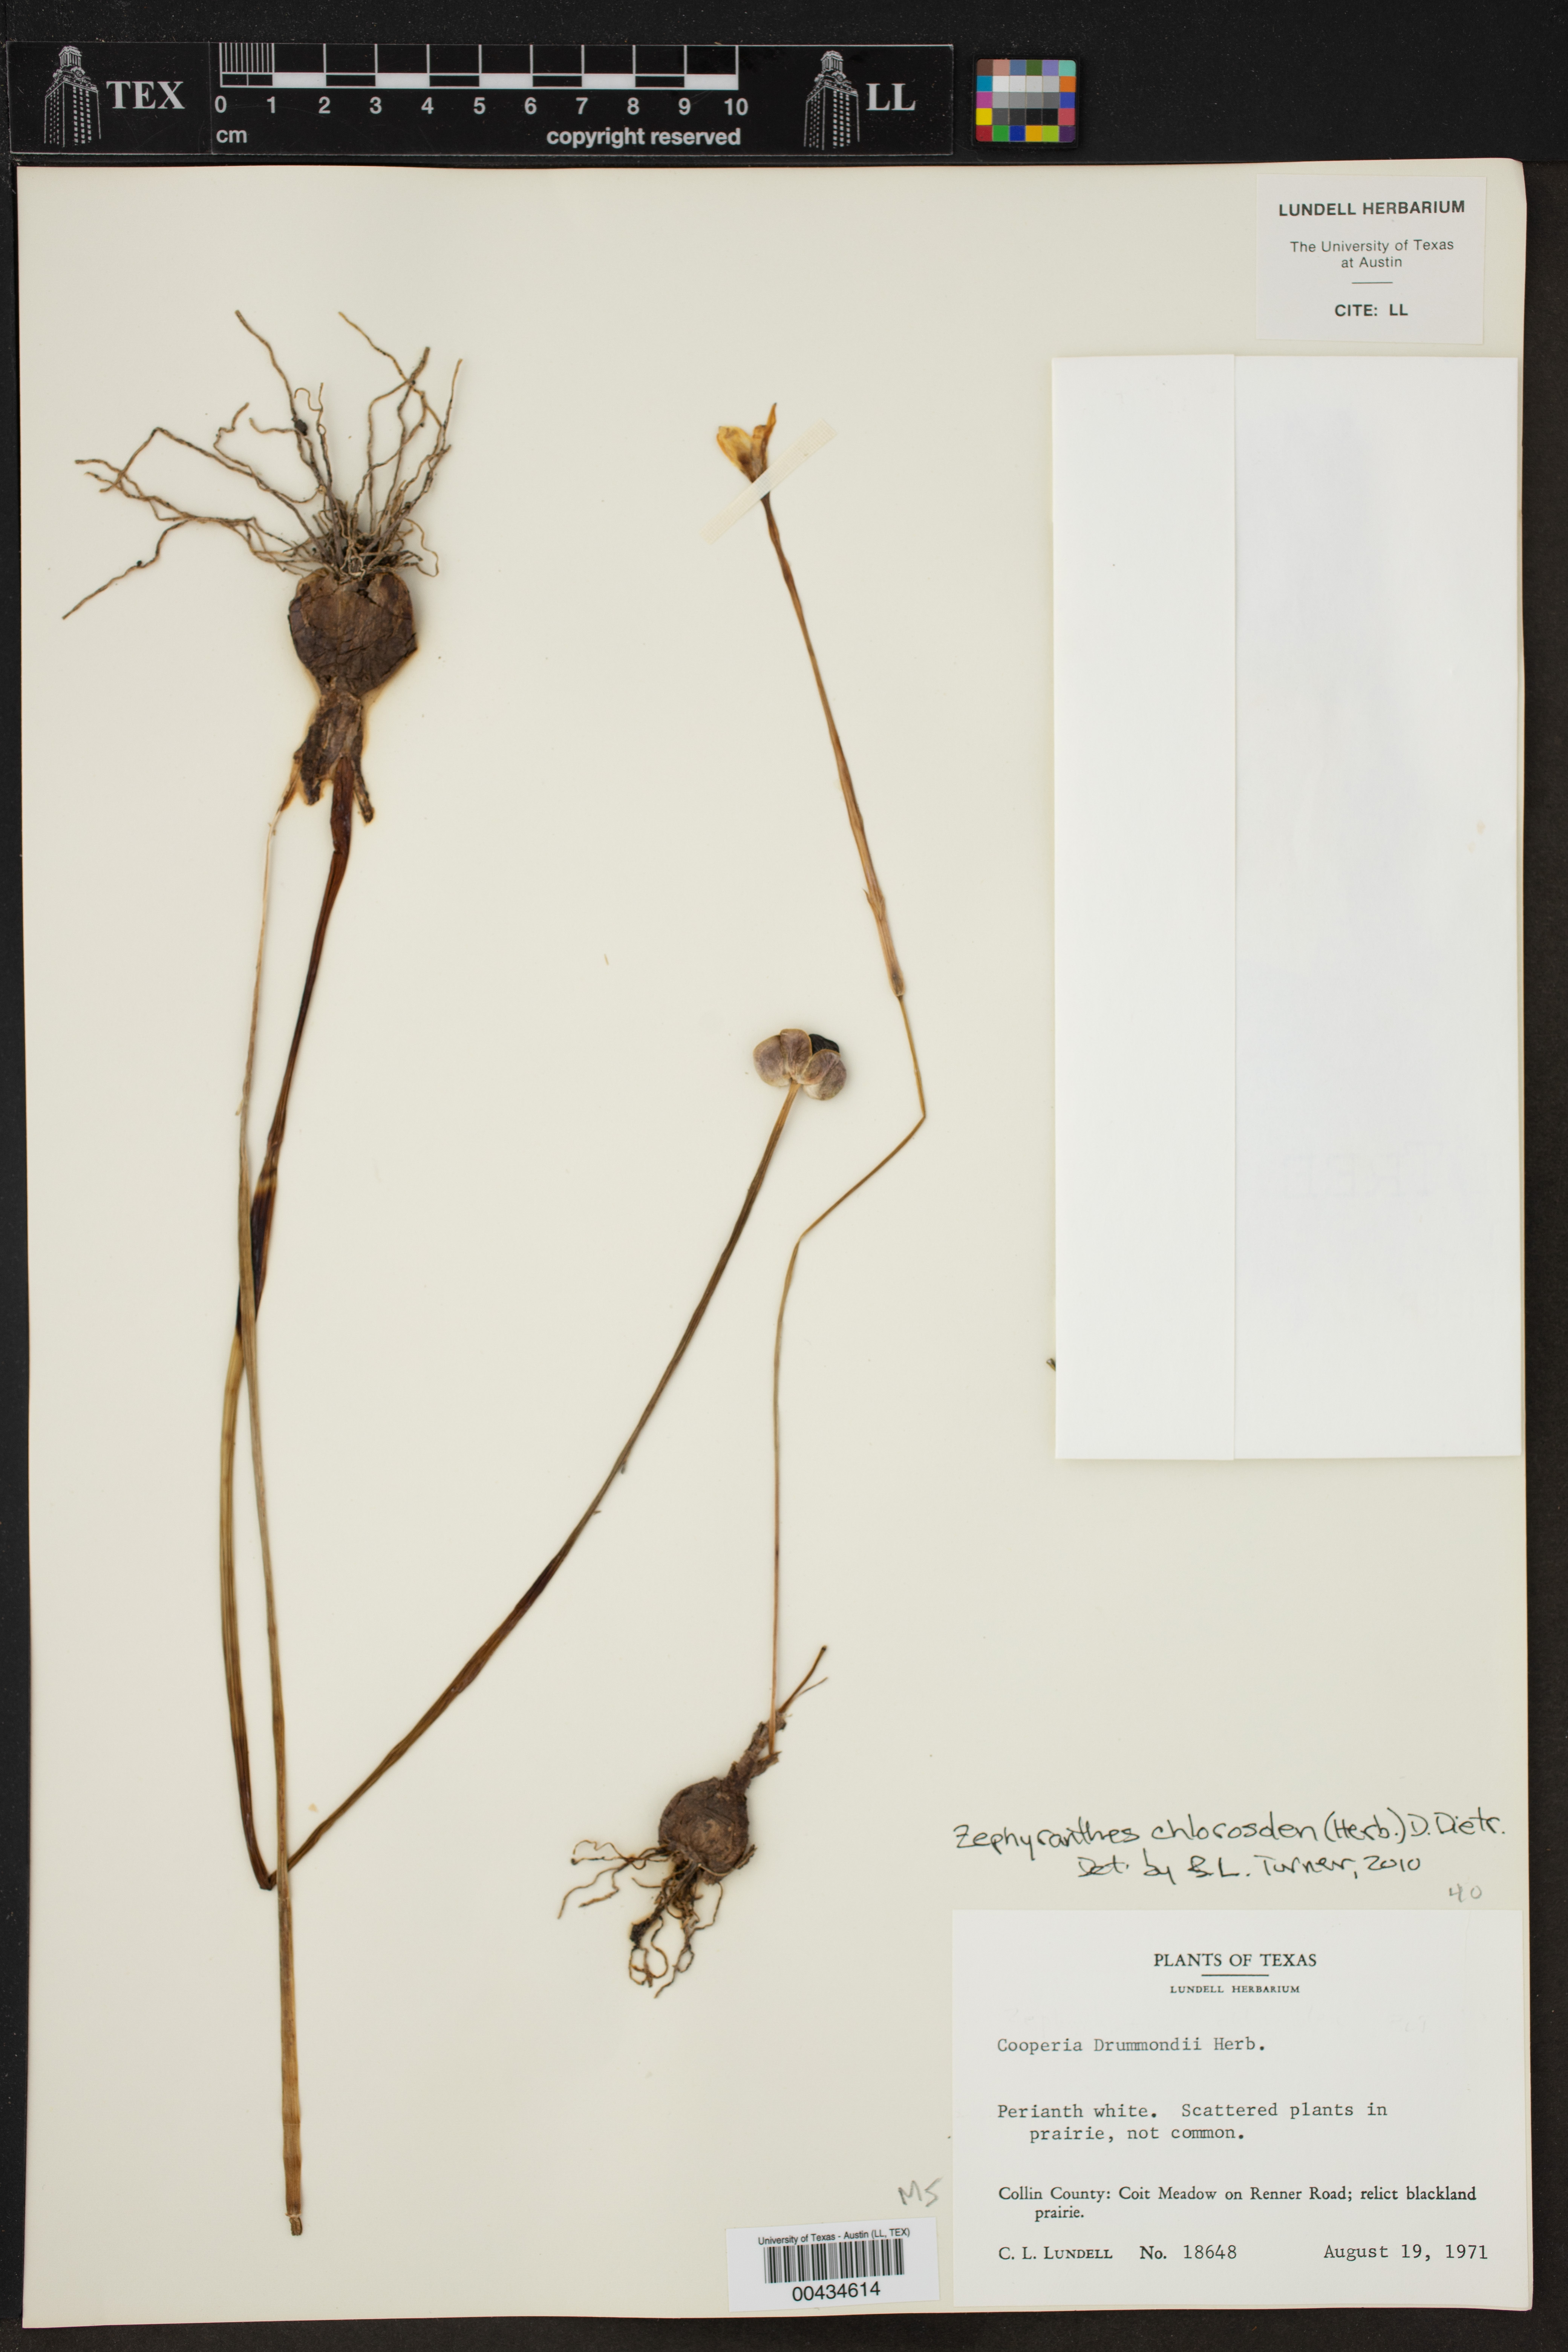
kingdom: Plantae
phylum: Tracheophyta
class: Liliopsida
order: Asparagales
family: Amaryllidaceae
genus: Zephyranthes
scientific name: Zephyranthes chlorosolen
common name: Evening rain-lily
